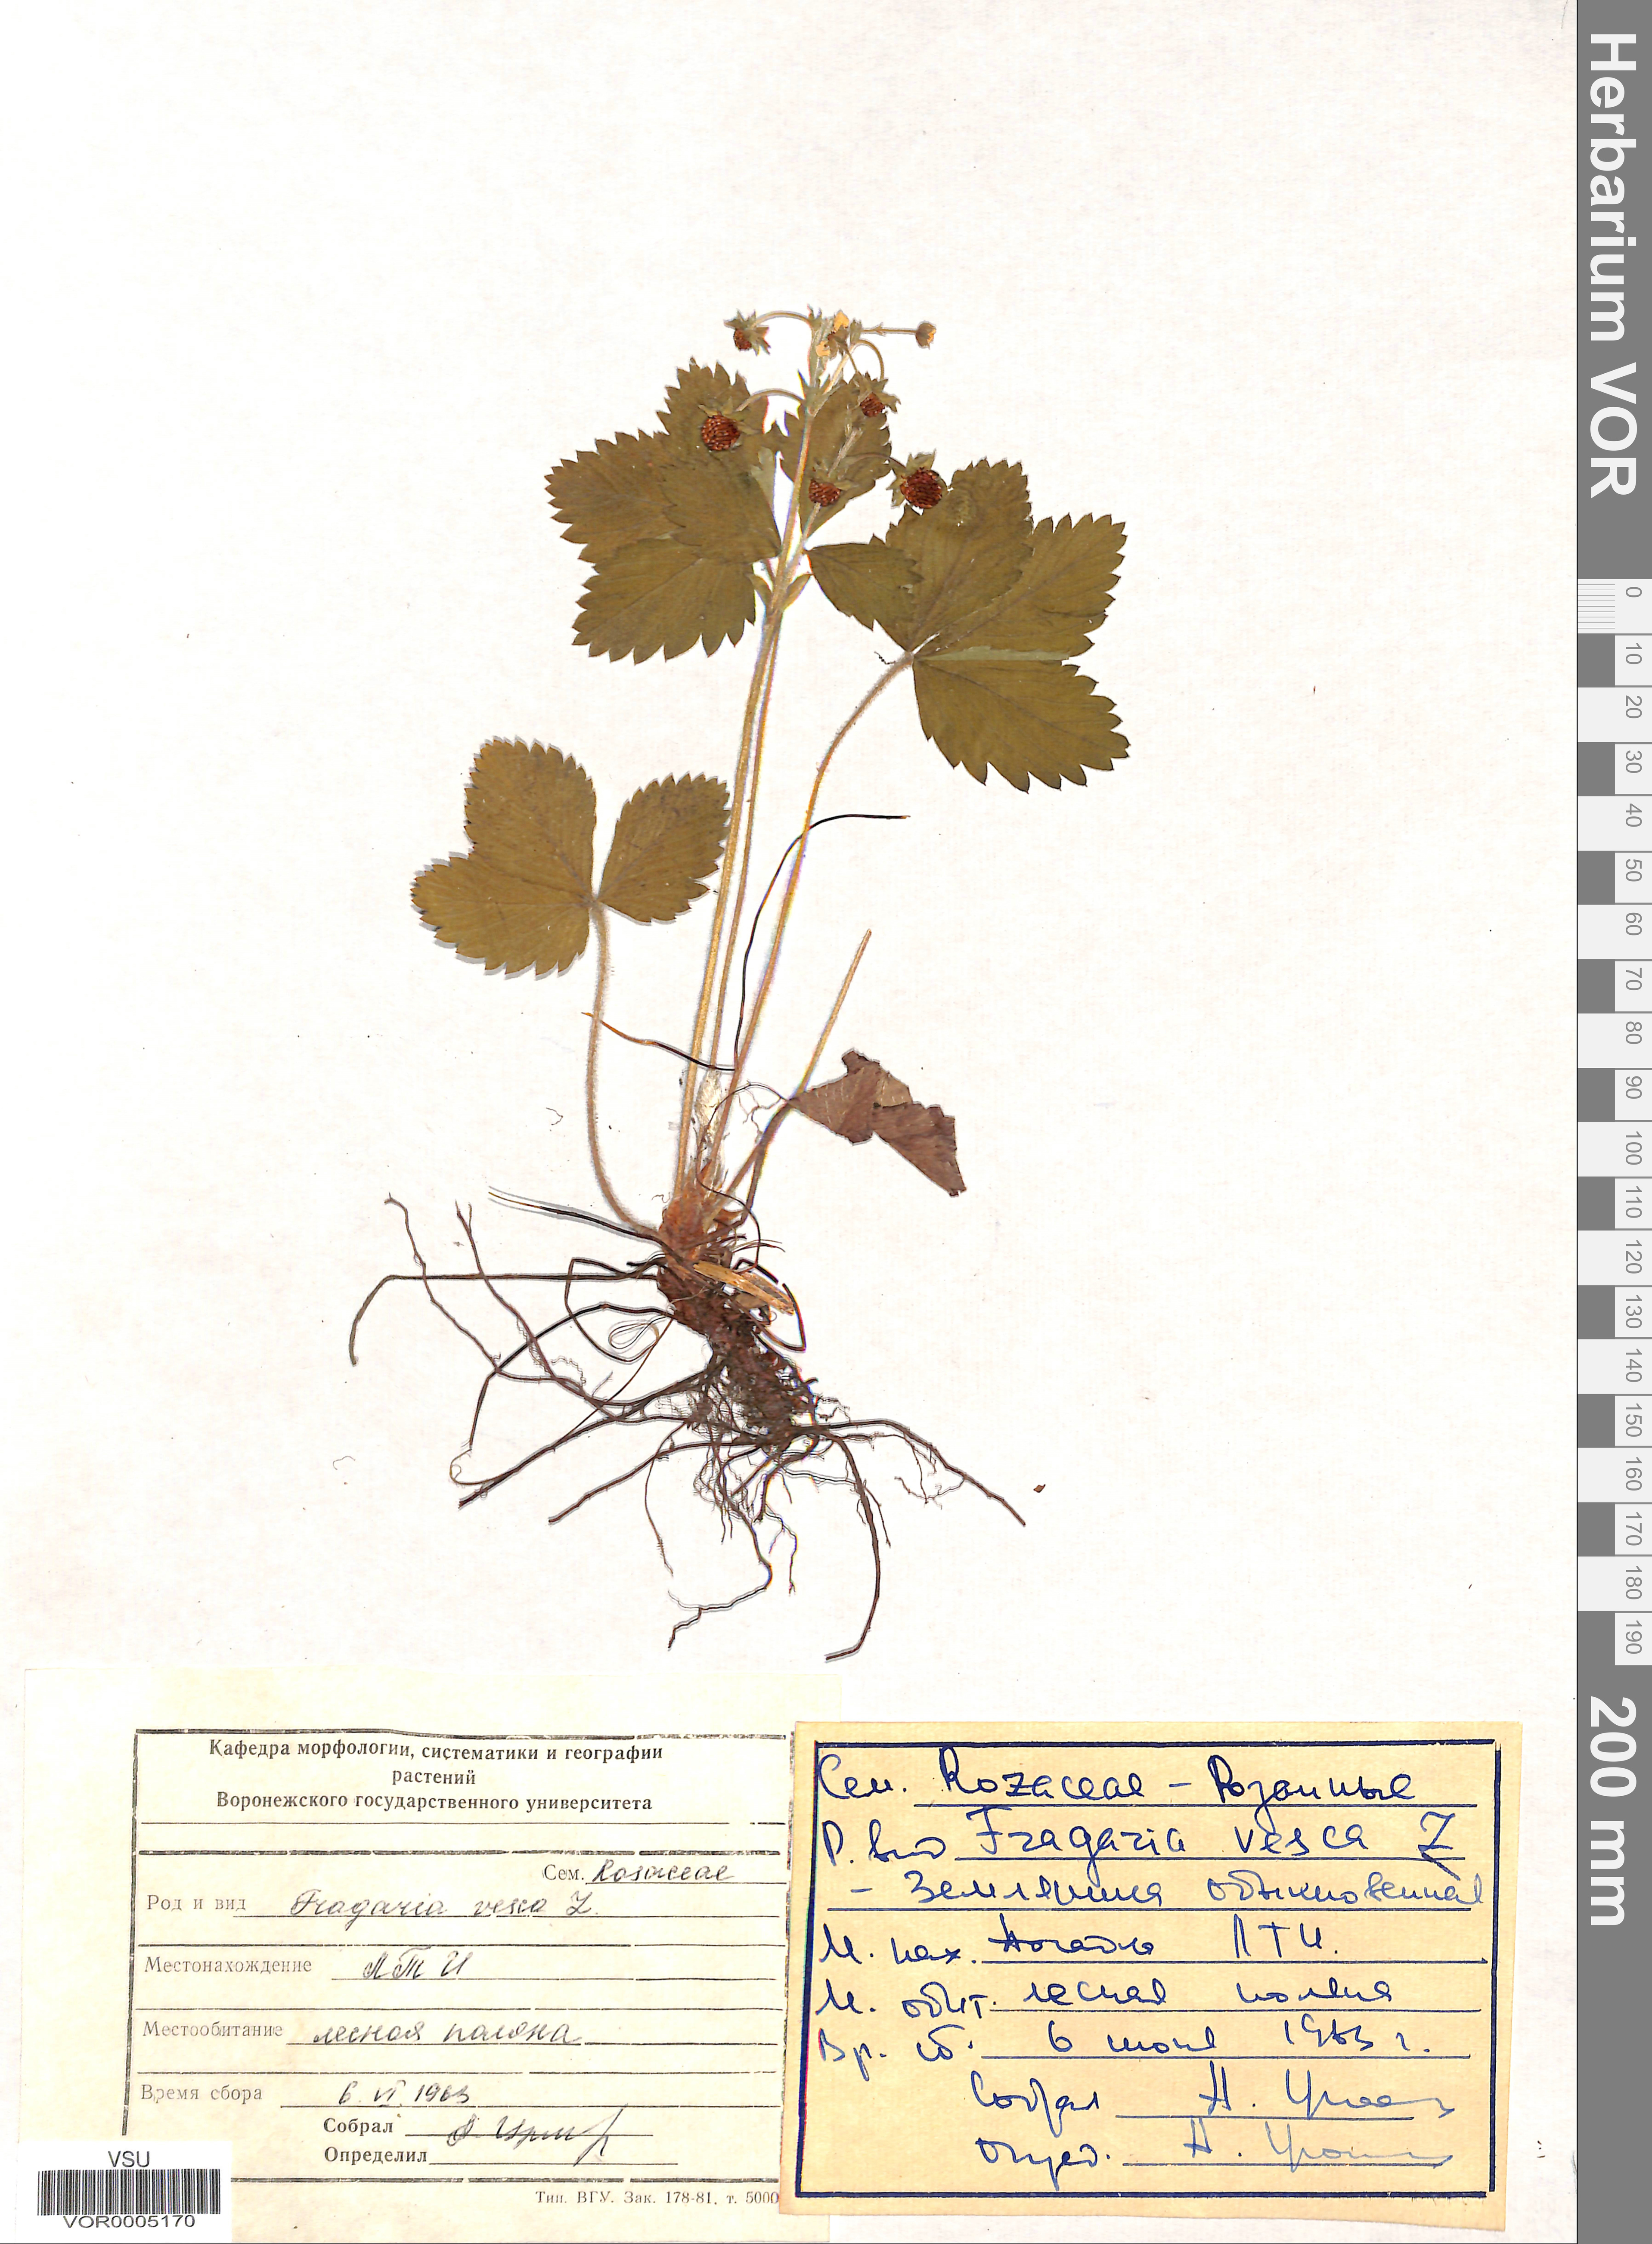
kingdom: Plantae
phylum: Tracheophyta
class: Magnoliopsida
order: Rosales
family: Rosaceae
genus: Fragaria
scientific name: Fragaria vesca
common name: Wild strawberry
